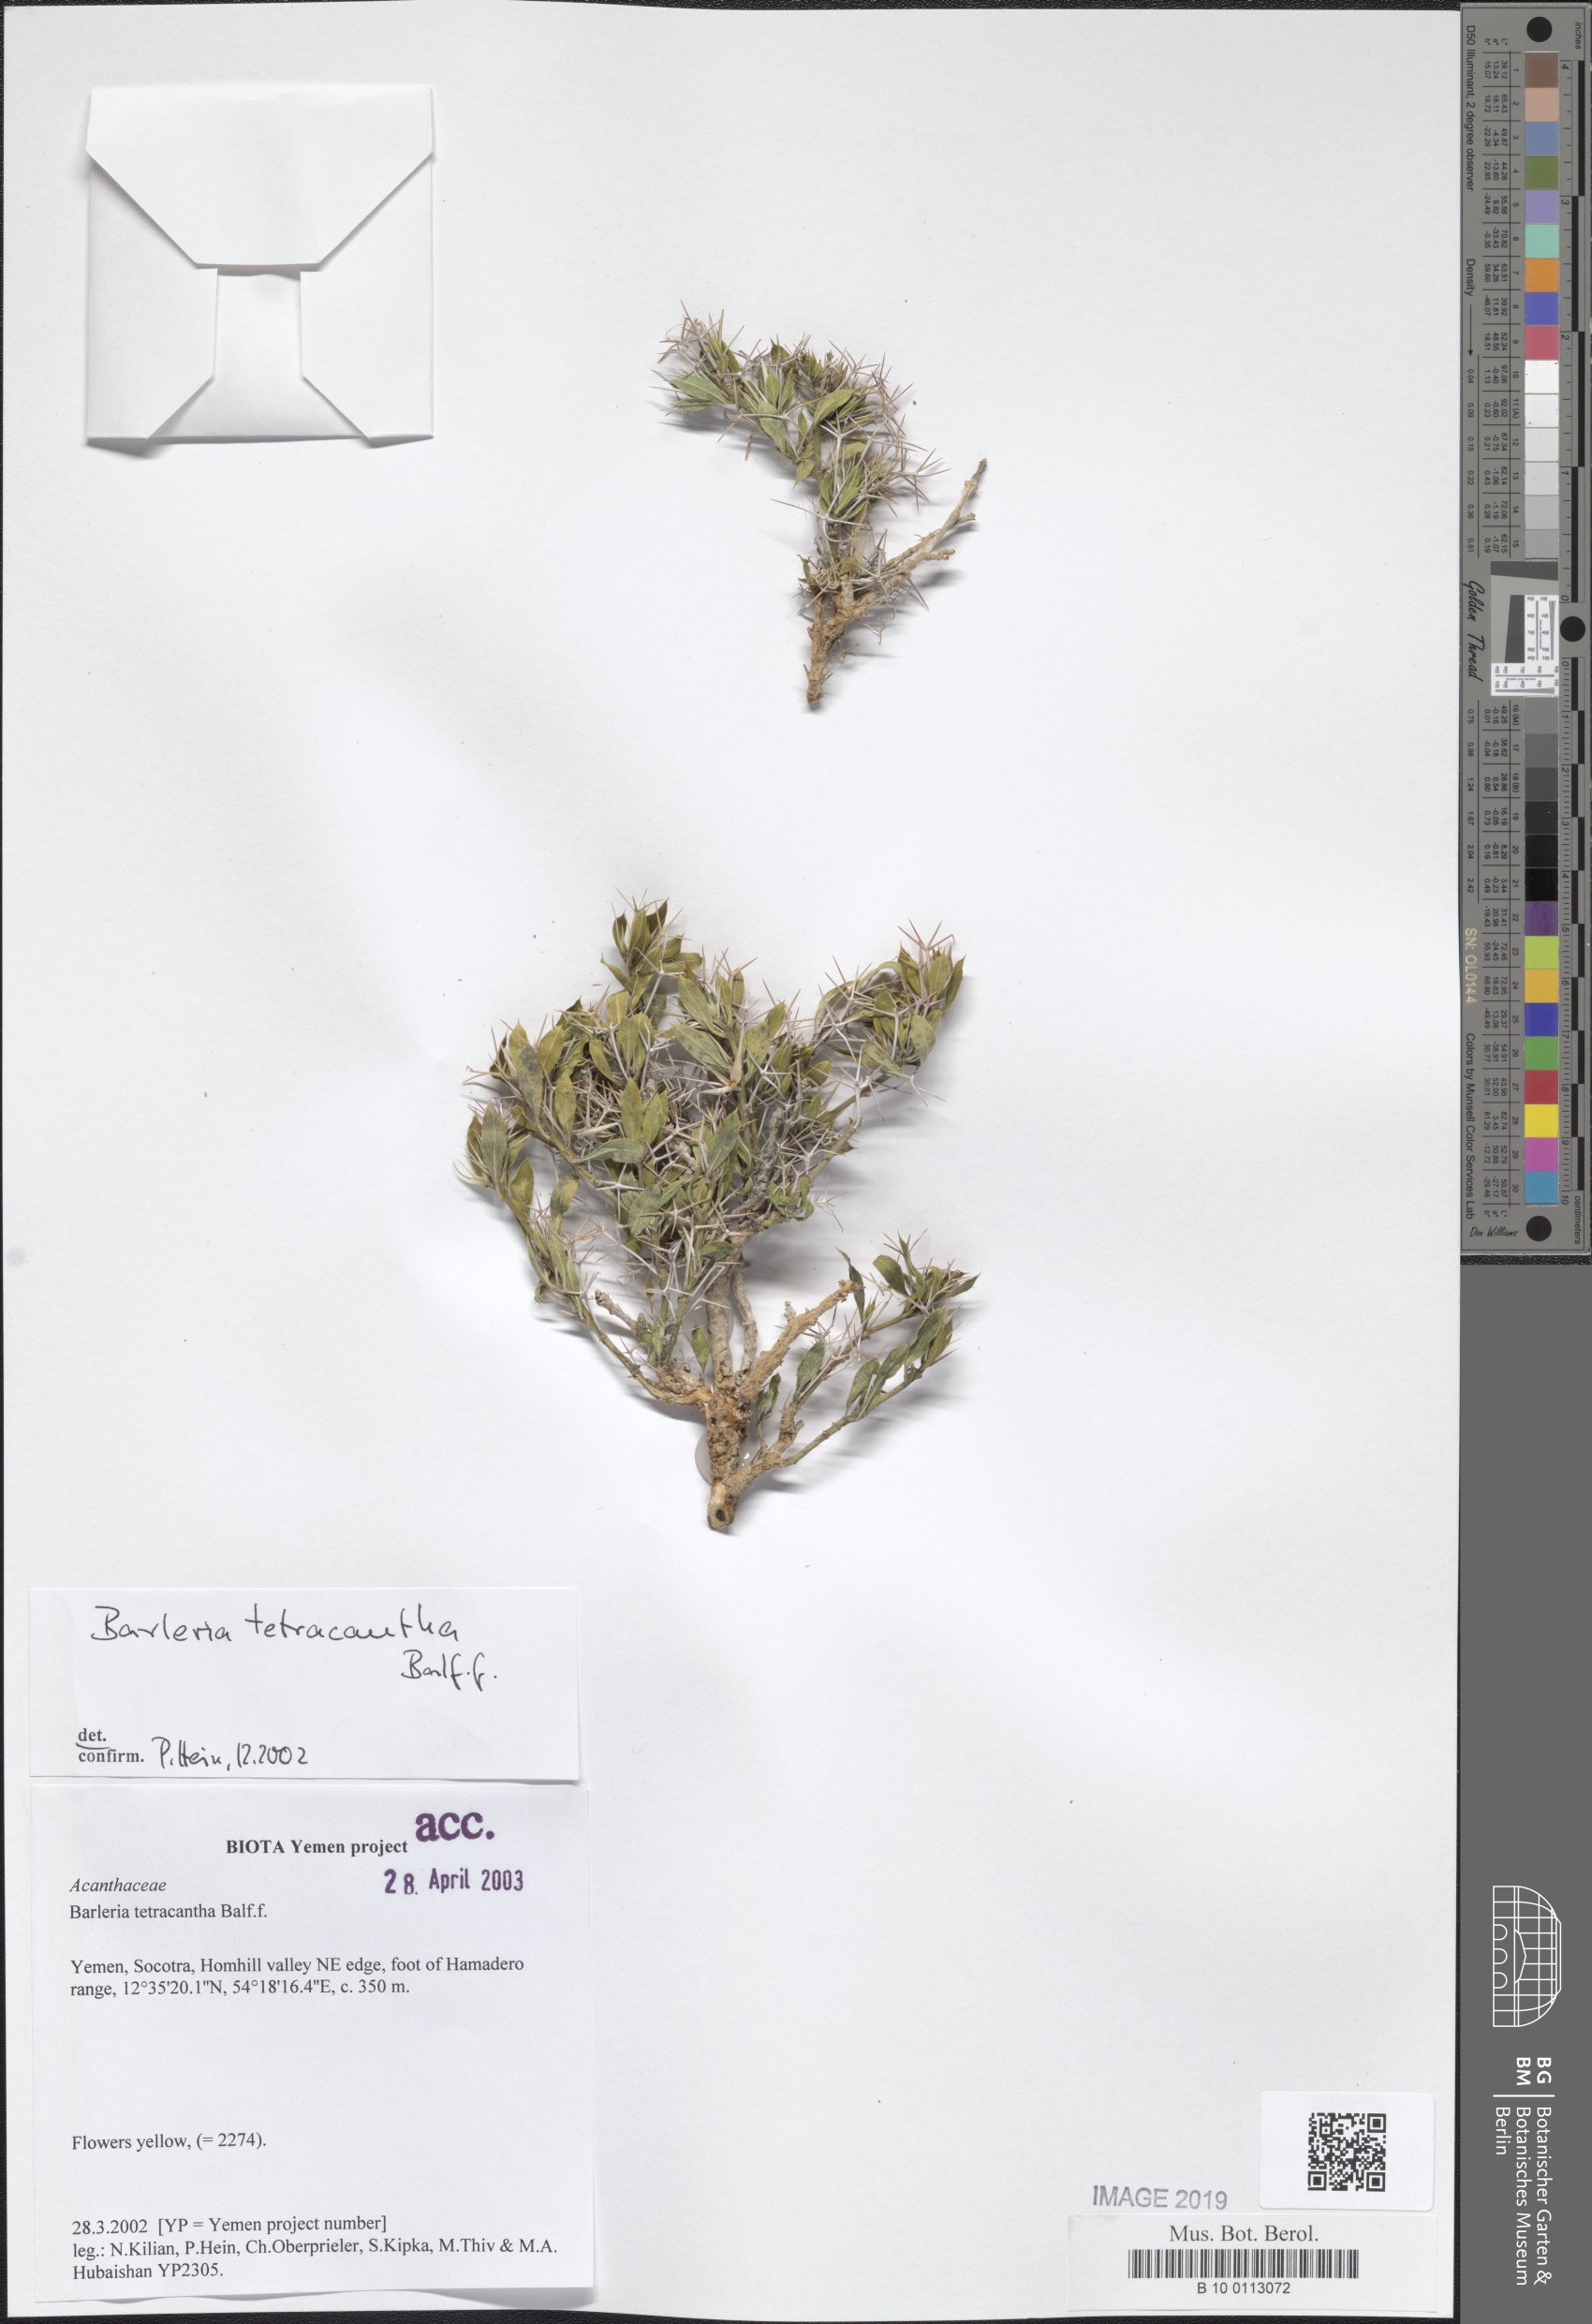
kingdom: Plantae
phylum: Tracheophyta
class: Magnoliopsida
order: Lamiales
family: Acanthaceae
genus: Barleria
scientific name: Barleria tetracantha
